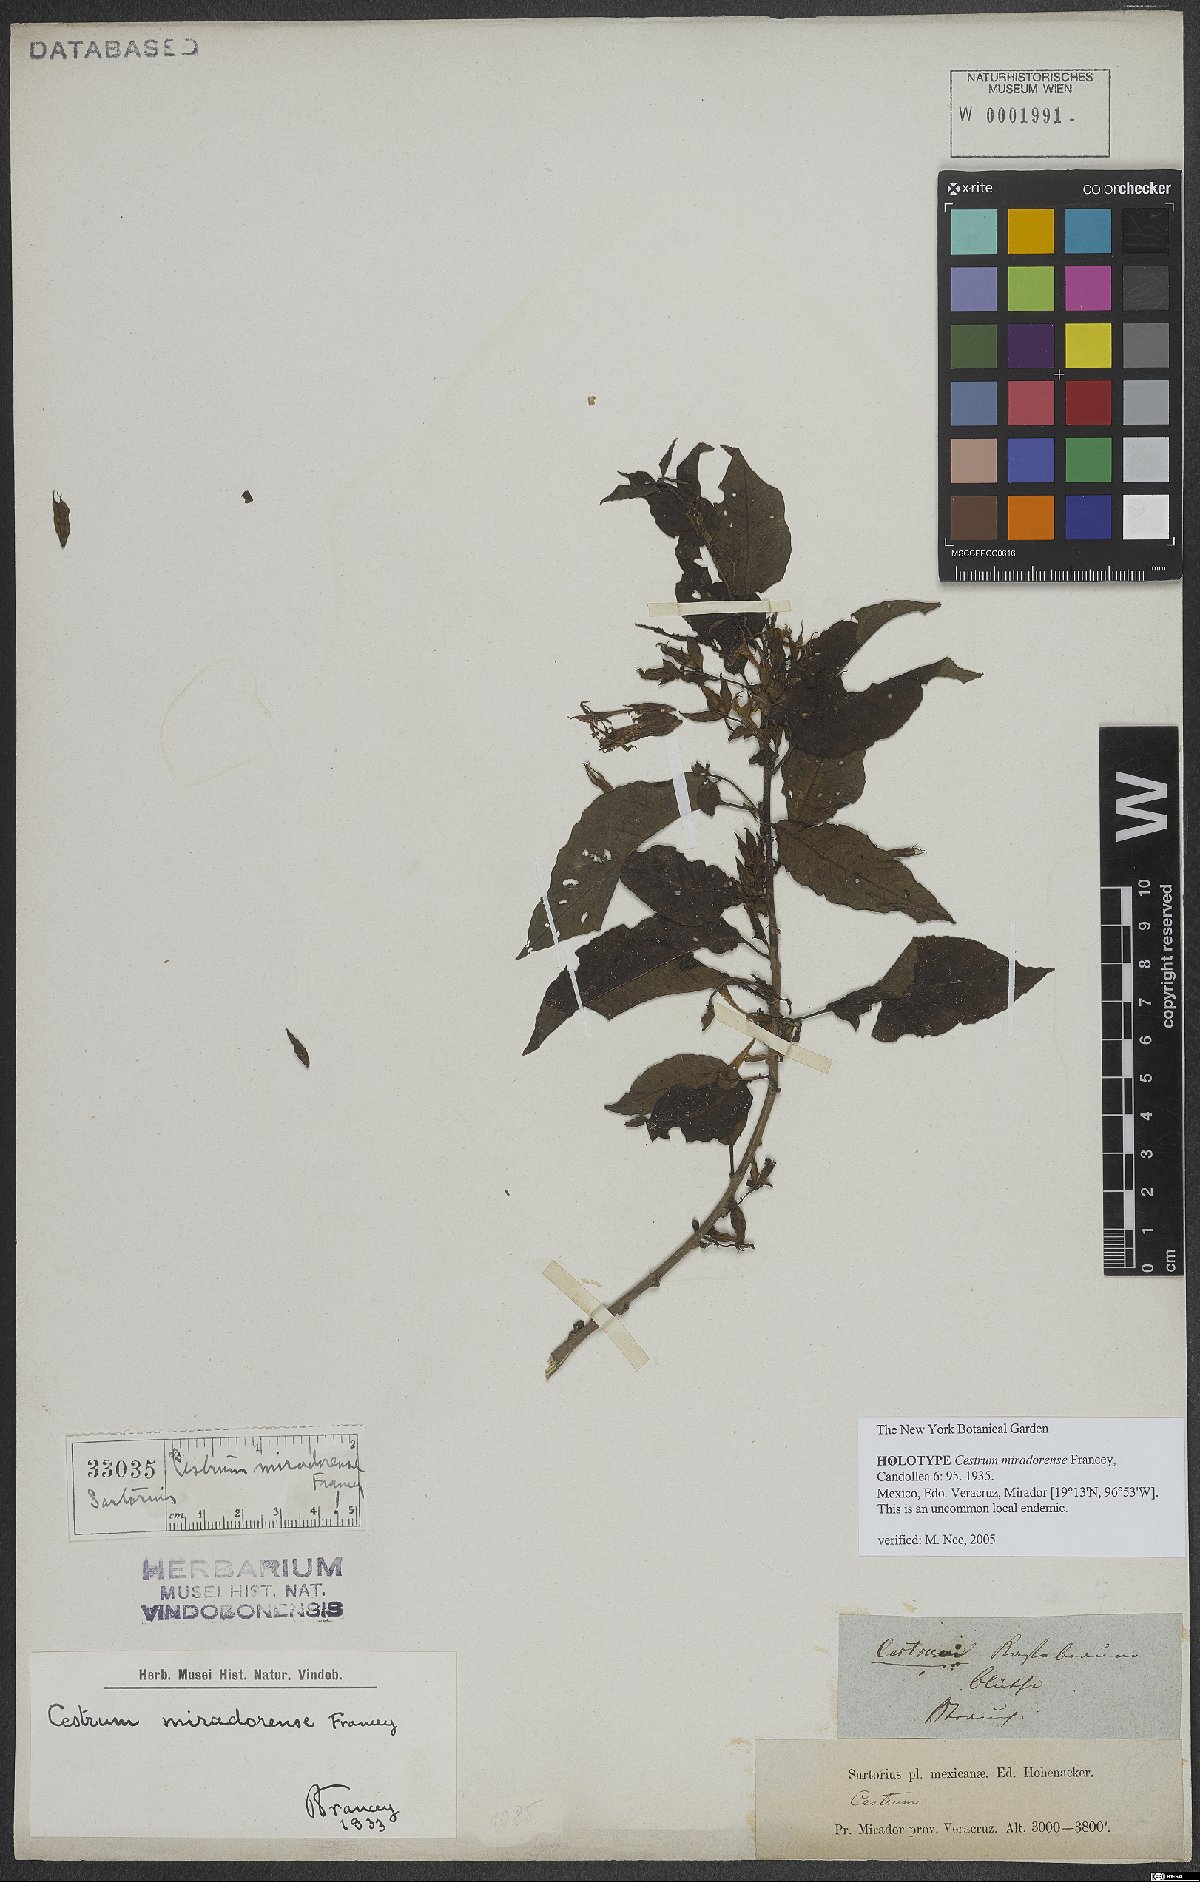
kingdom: Plantae
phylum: Tracheophyta
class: Magnoliopsida
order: Solanales
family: Solanaceae
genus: Cestrum
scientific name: Cestrum miradorense
